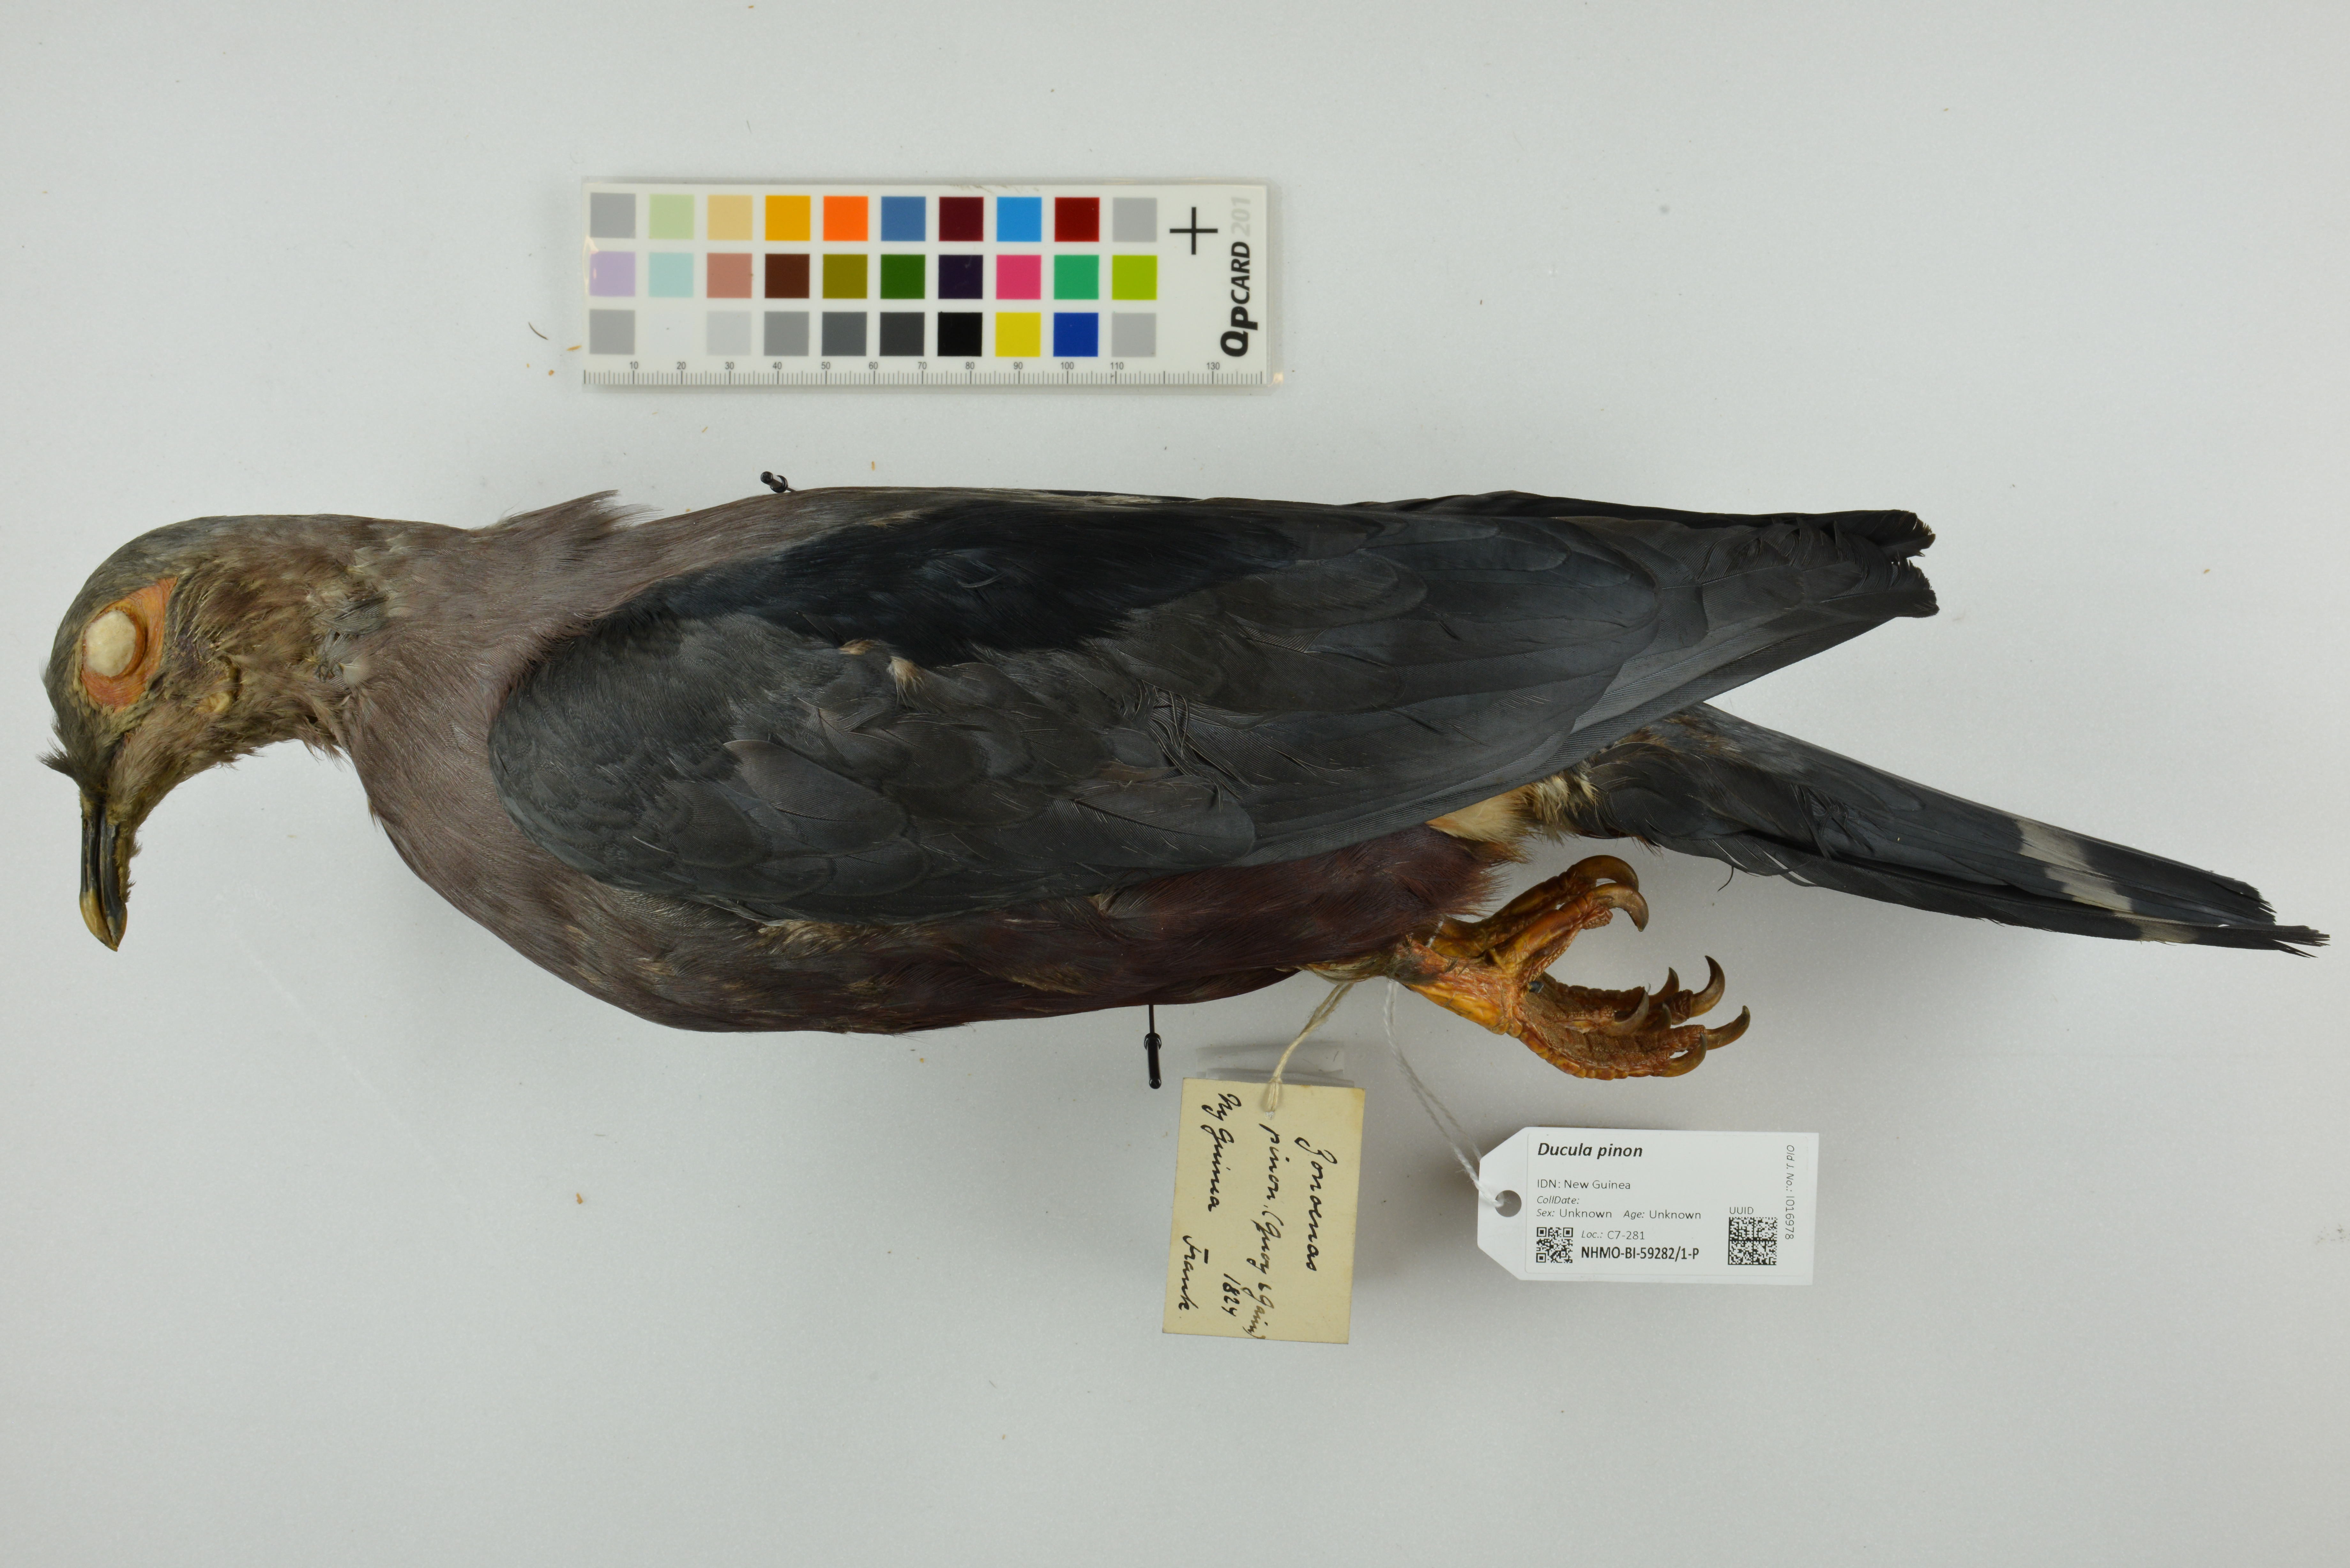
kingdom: Animalia
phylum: Chordata
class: Aves
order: Columbiformes
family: Columbidae
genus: Ducula
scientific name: Ducula pinon
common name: Pinon's imperial pigeon
